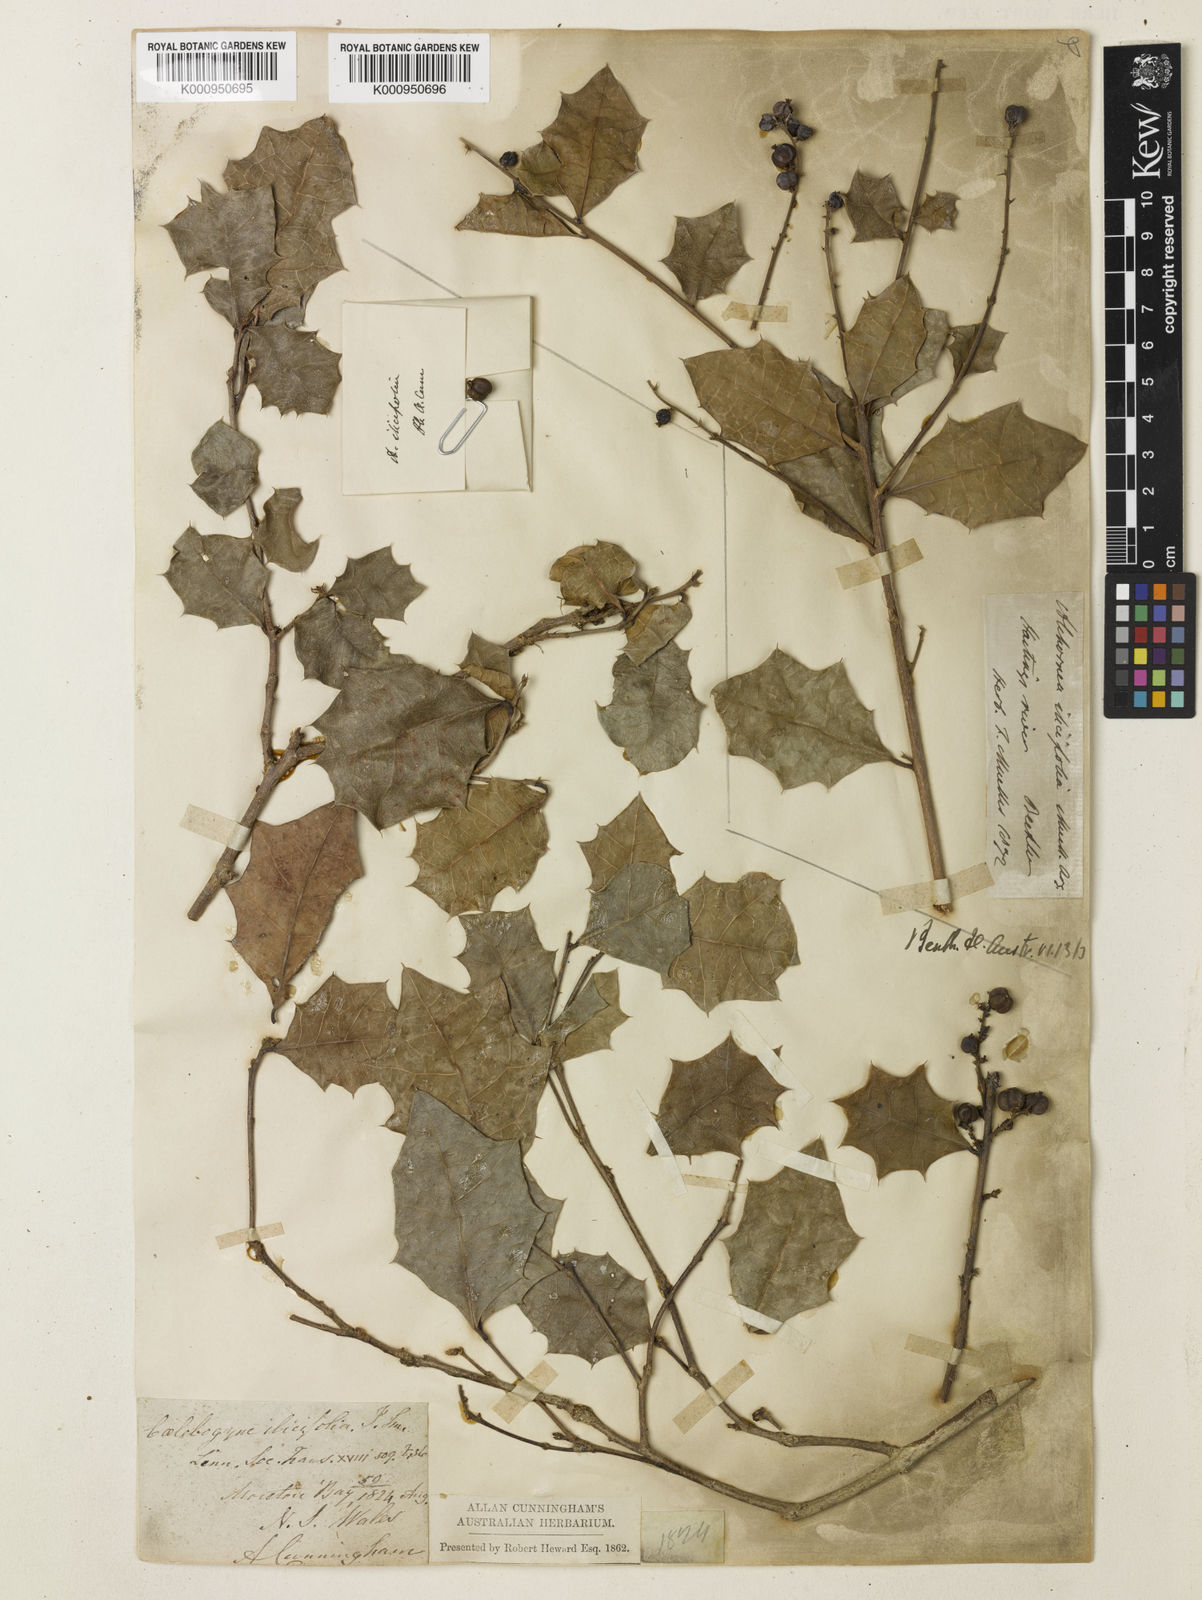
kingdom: Plantae
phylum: Tracheophyta
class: Magnoliopsida
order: Malpighiales
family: Euphorbiaceae
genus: Alchornea
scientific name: Alchornea
